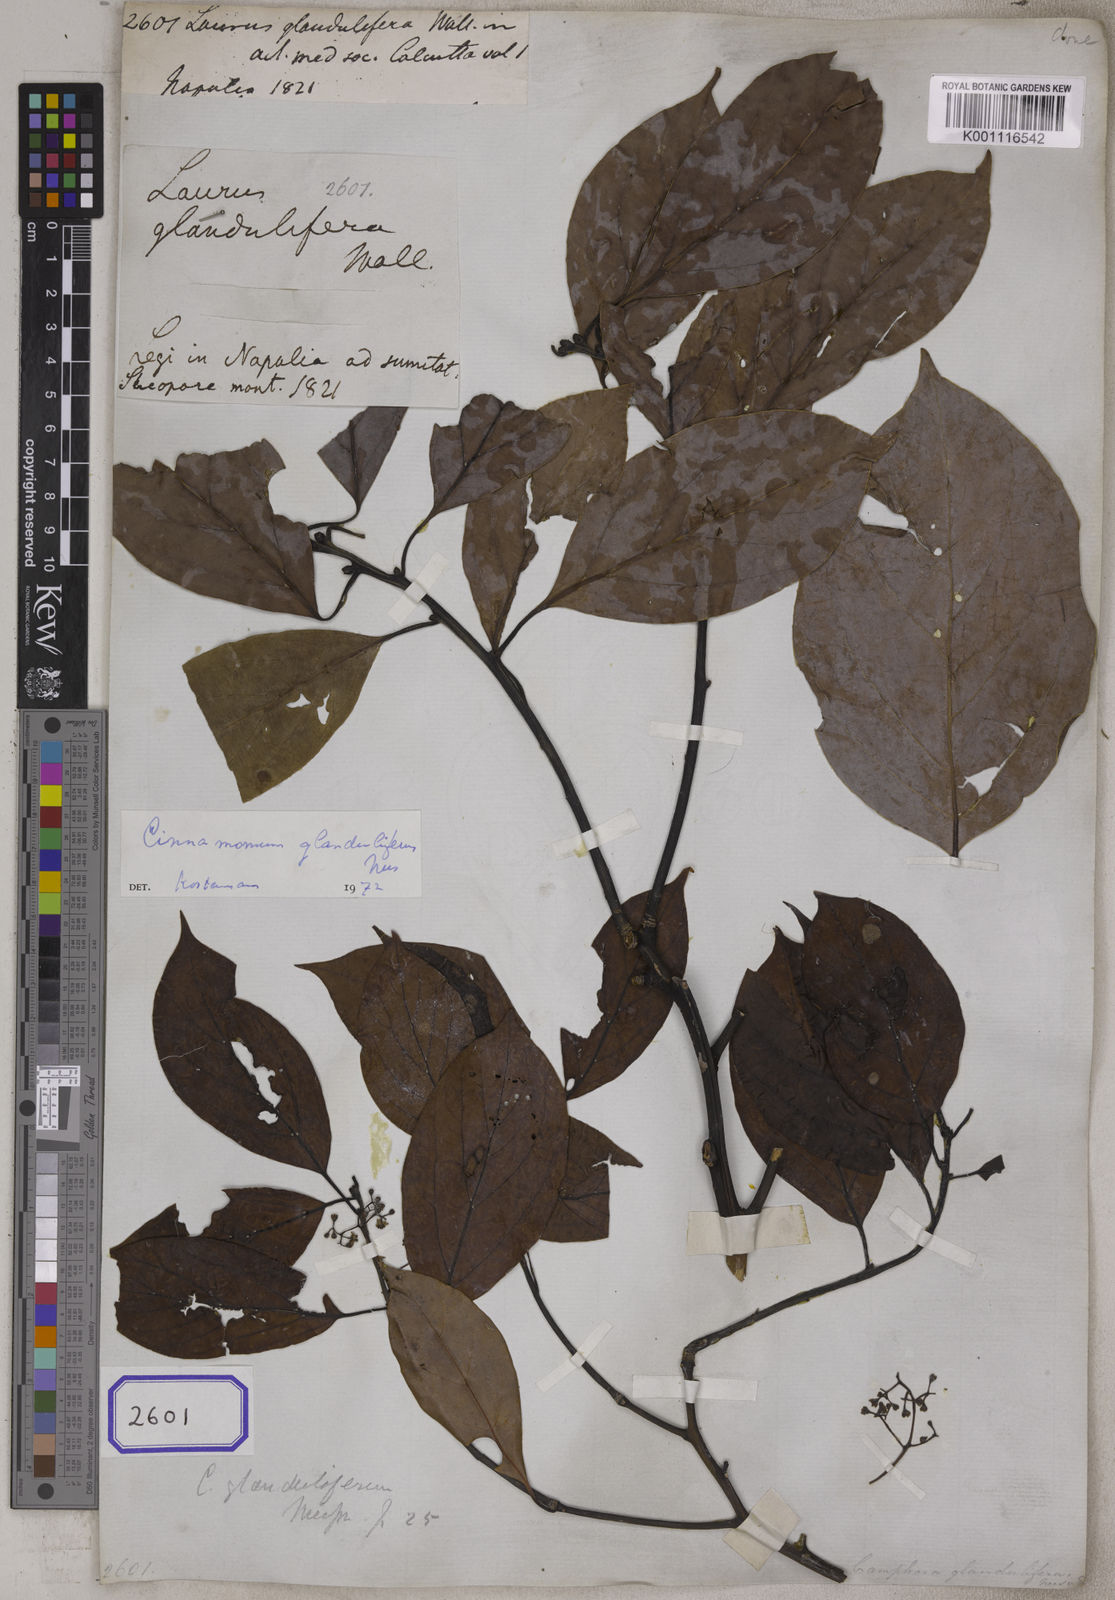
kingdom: Plantae
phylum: Tracheophyta
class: Magnoliopsida
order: Laurales
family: Lauraceae
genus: Cinnamomum
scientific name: Cinnamomum glanduliferum
